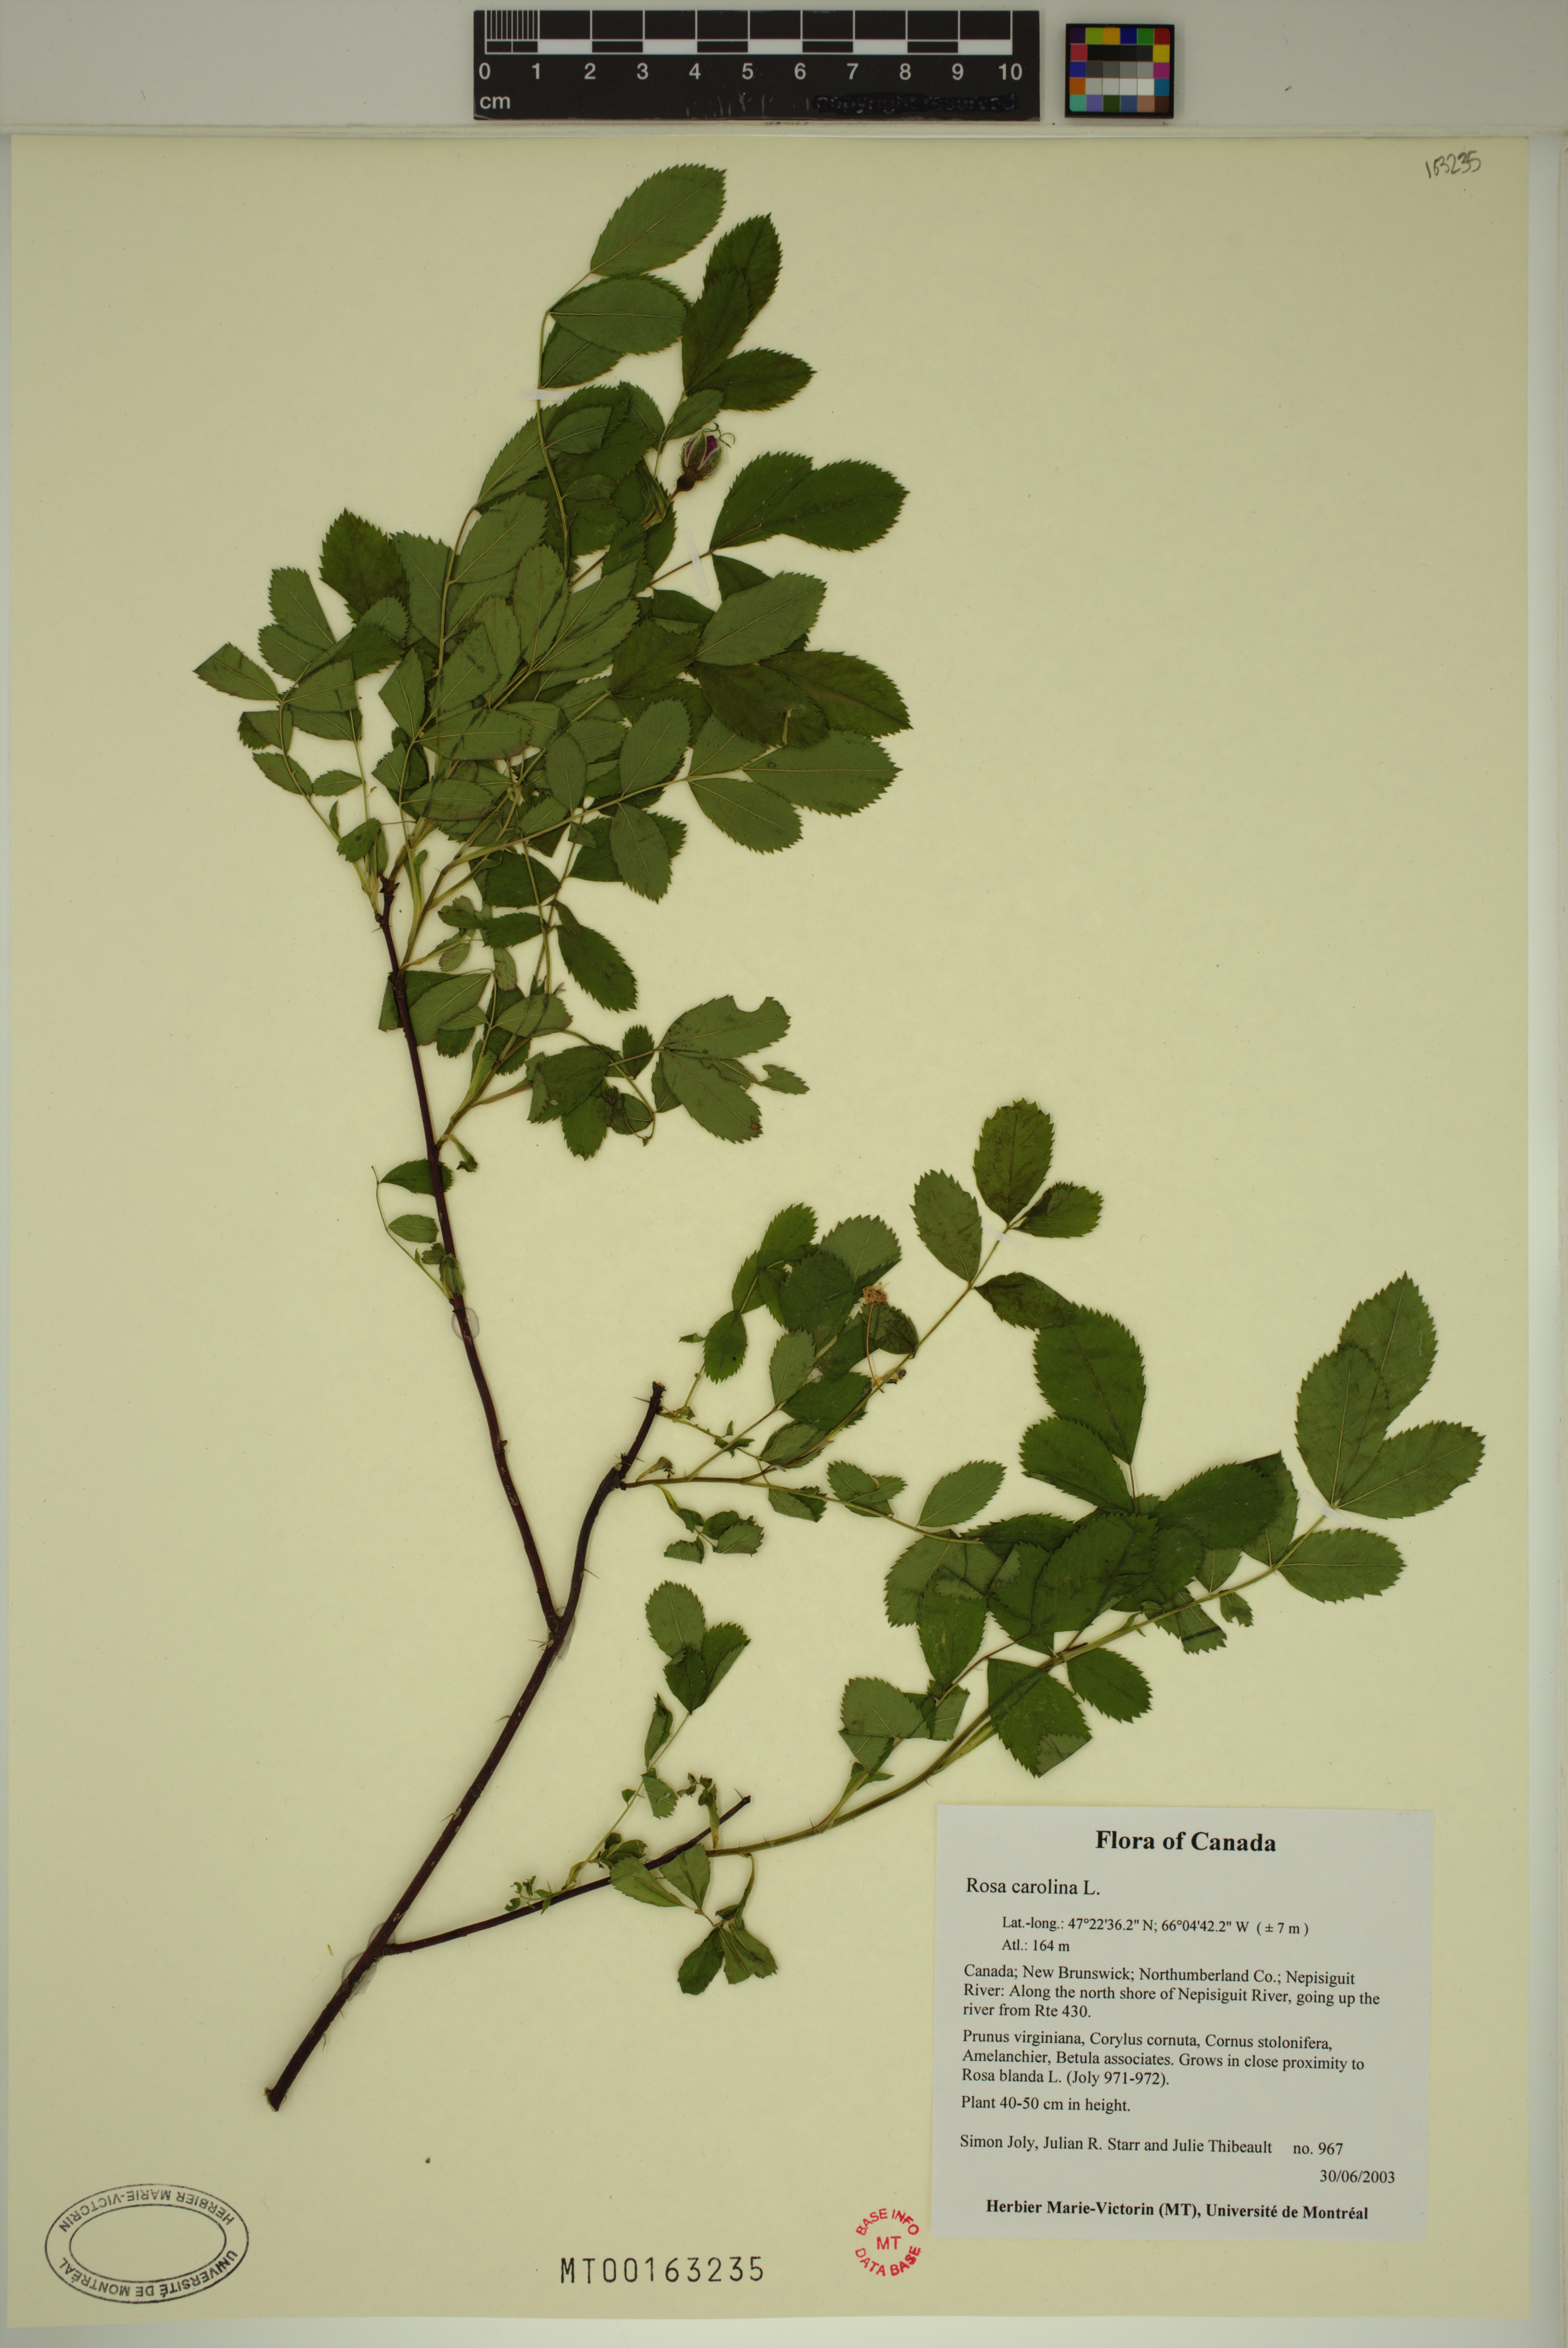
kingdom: Plantae
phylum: Tracheophyta
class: Magnoliopsida
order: Rosales
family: Rosaceae
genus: Rosa
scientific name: Rosa carolina
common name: Pasture rose
